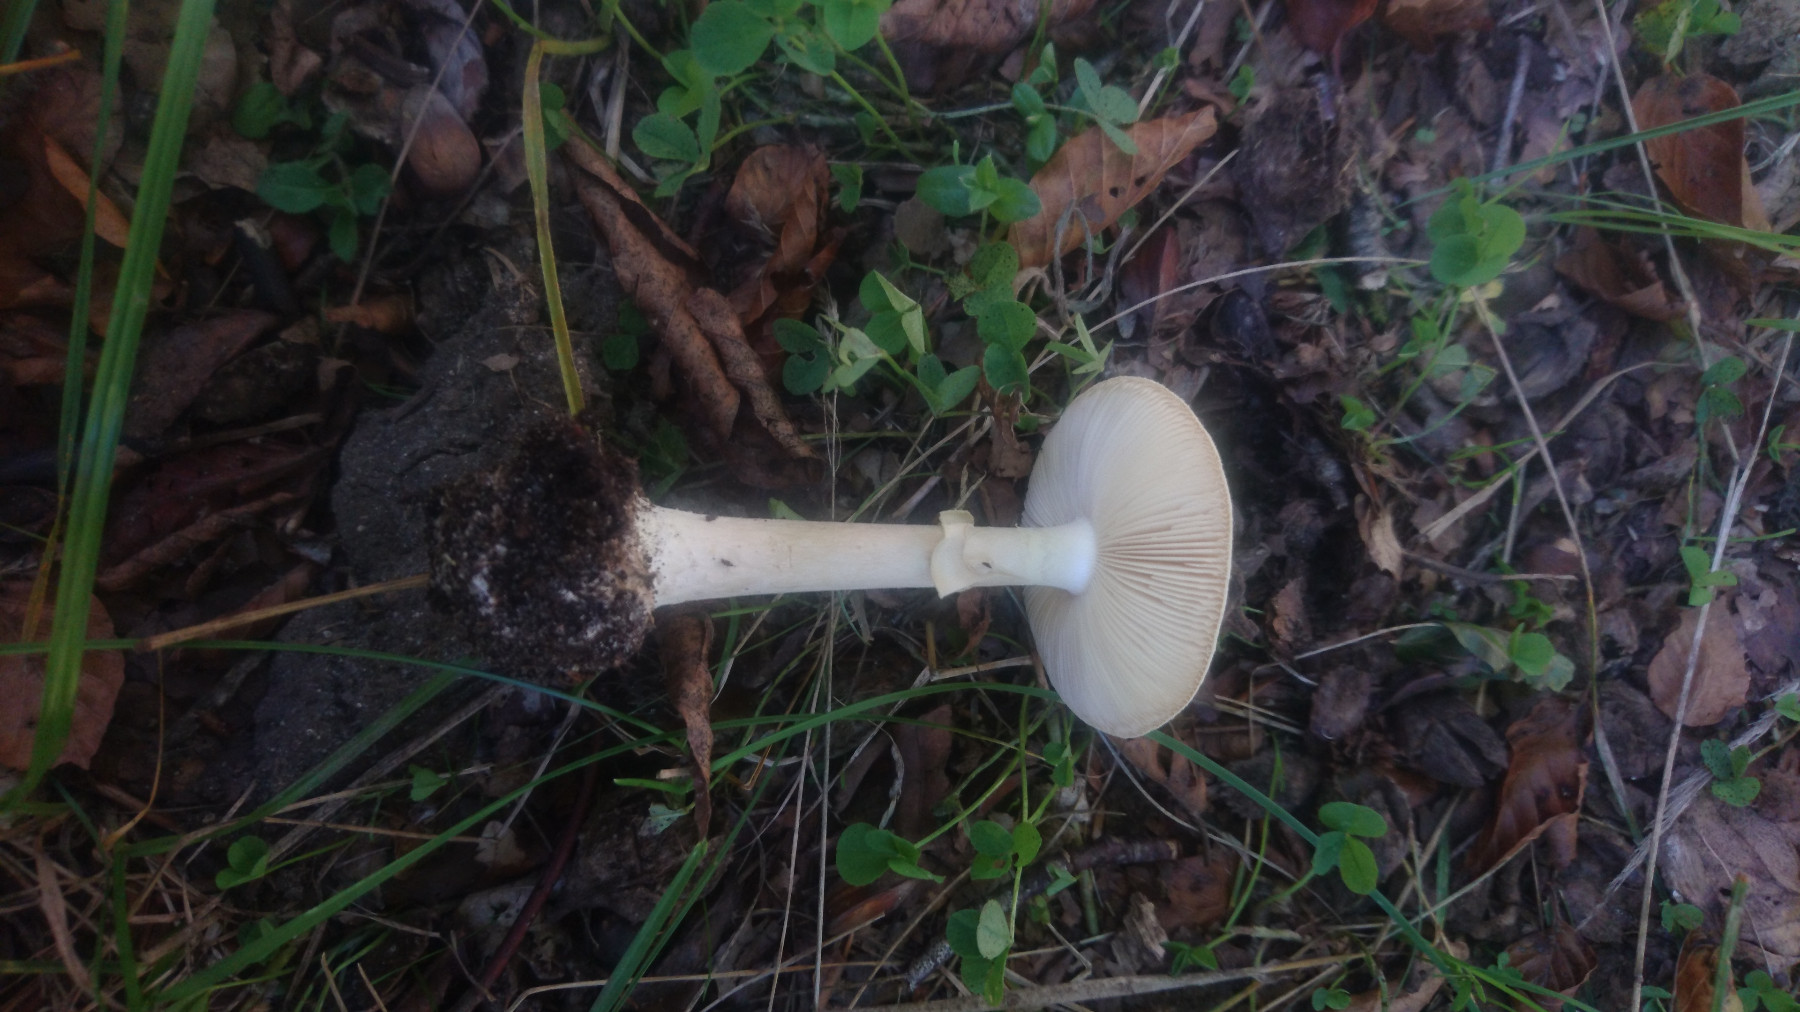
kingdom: Fungi
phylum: Basidiomycota
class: Agaricomycetes
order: Agaricales
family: Amanitaceae
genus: Amanita
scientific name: Amanita citrina
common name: False death-cap
